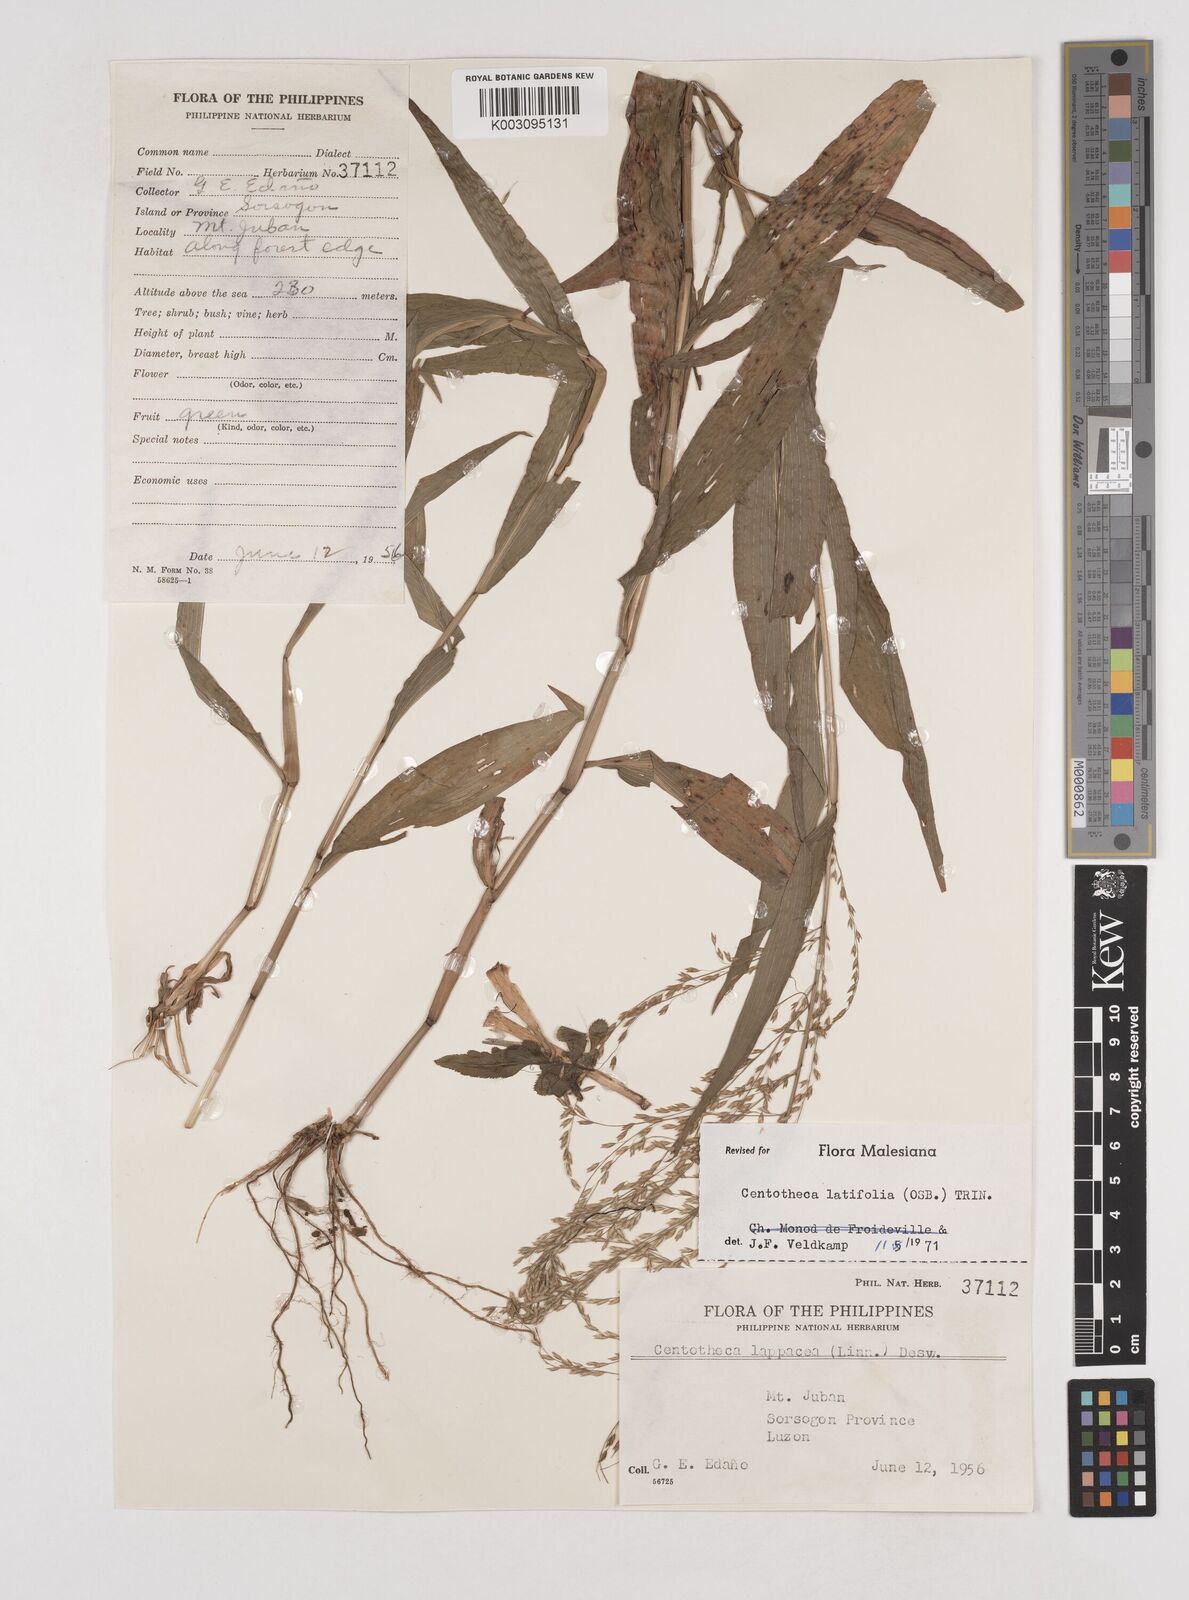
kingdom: Plantae
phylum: Tracheophyta
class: Liliopsida
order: Poales
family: Poaceae
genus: Centotheca
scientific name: Centotheca lappacea
